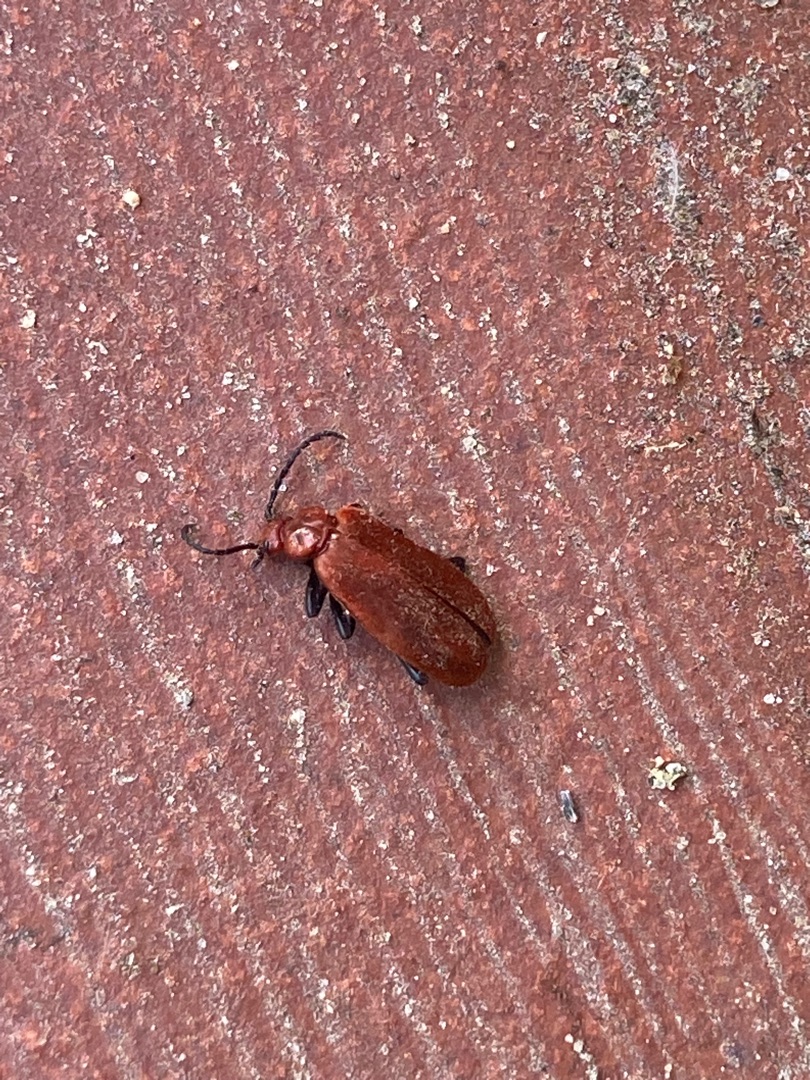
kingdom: Animalia
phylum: Arthropoda
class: Insecta
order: Coleoptera
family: Pyrochroidae
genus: Pyrochroa
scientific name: Pyrochroa serraticornis
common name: Rødhovedet kardinalbille
